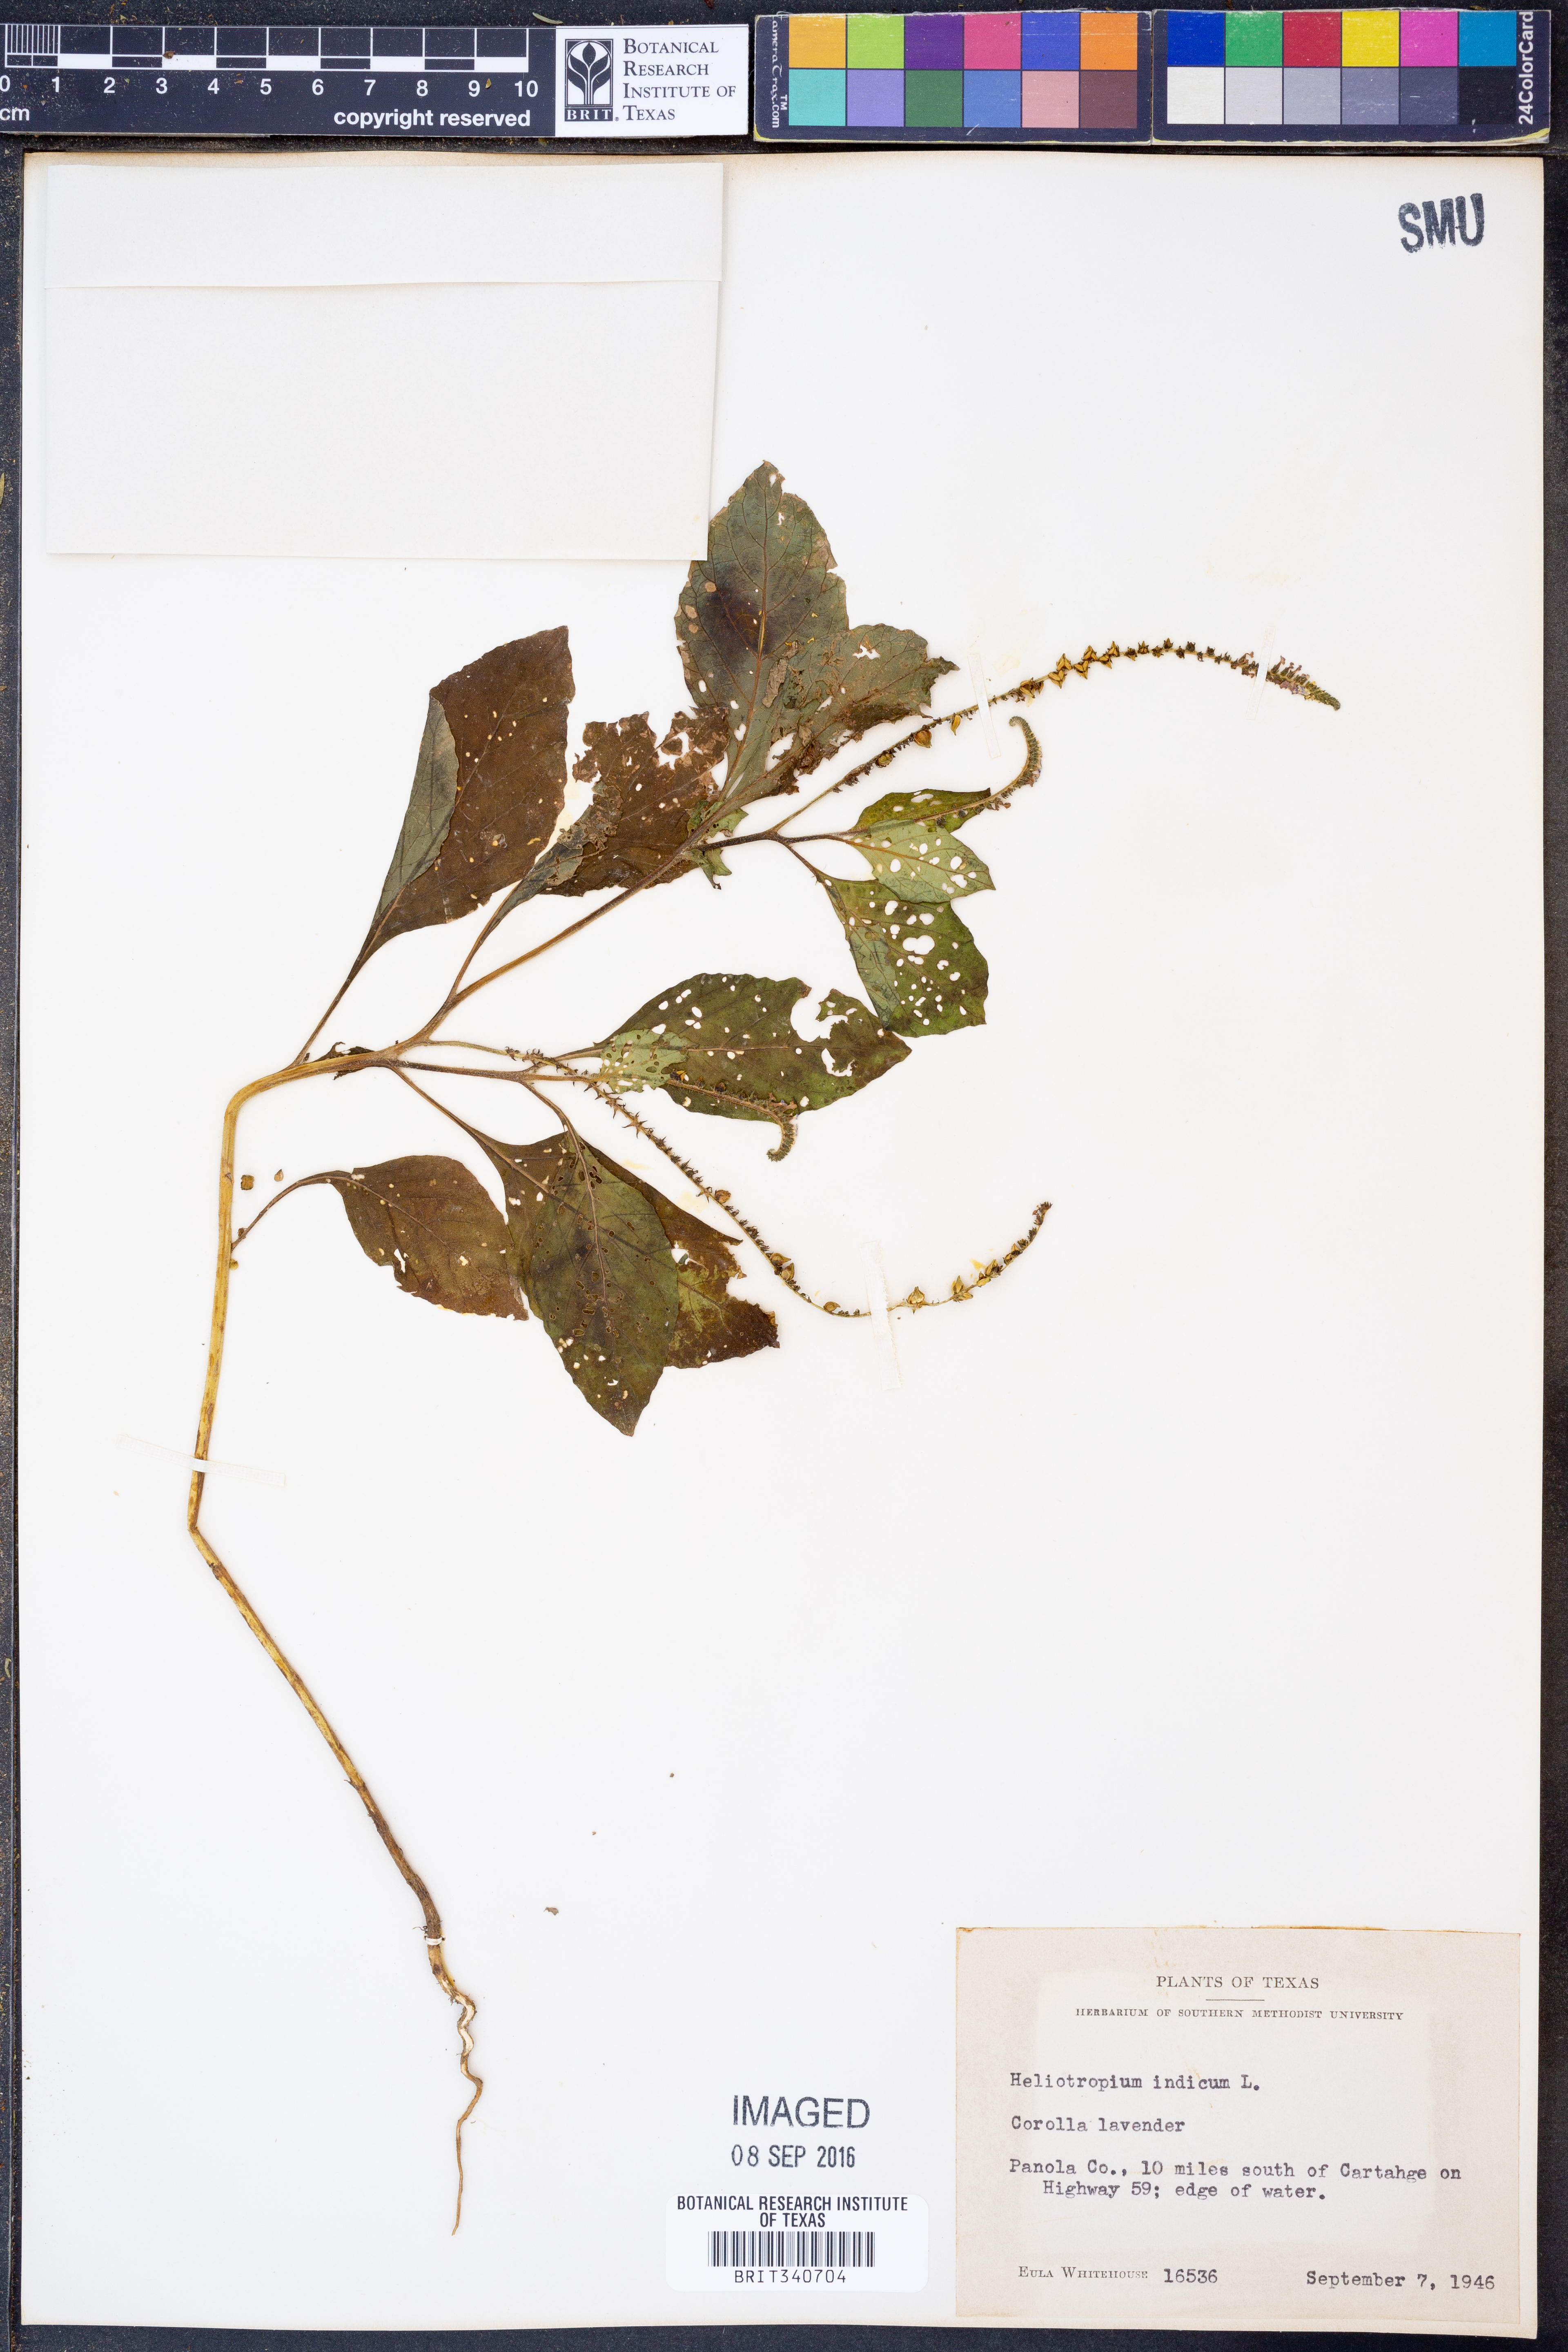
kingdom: Plantae
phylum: Tracheophyta
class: Magnoliopsida
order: Boraginales
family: Heliotropiaceae
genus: Heliotropium
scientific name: Heliotropium indicum
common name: Indian heliotrope
